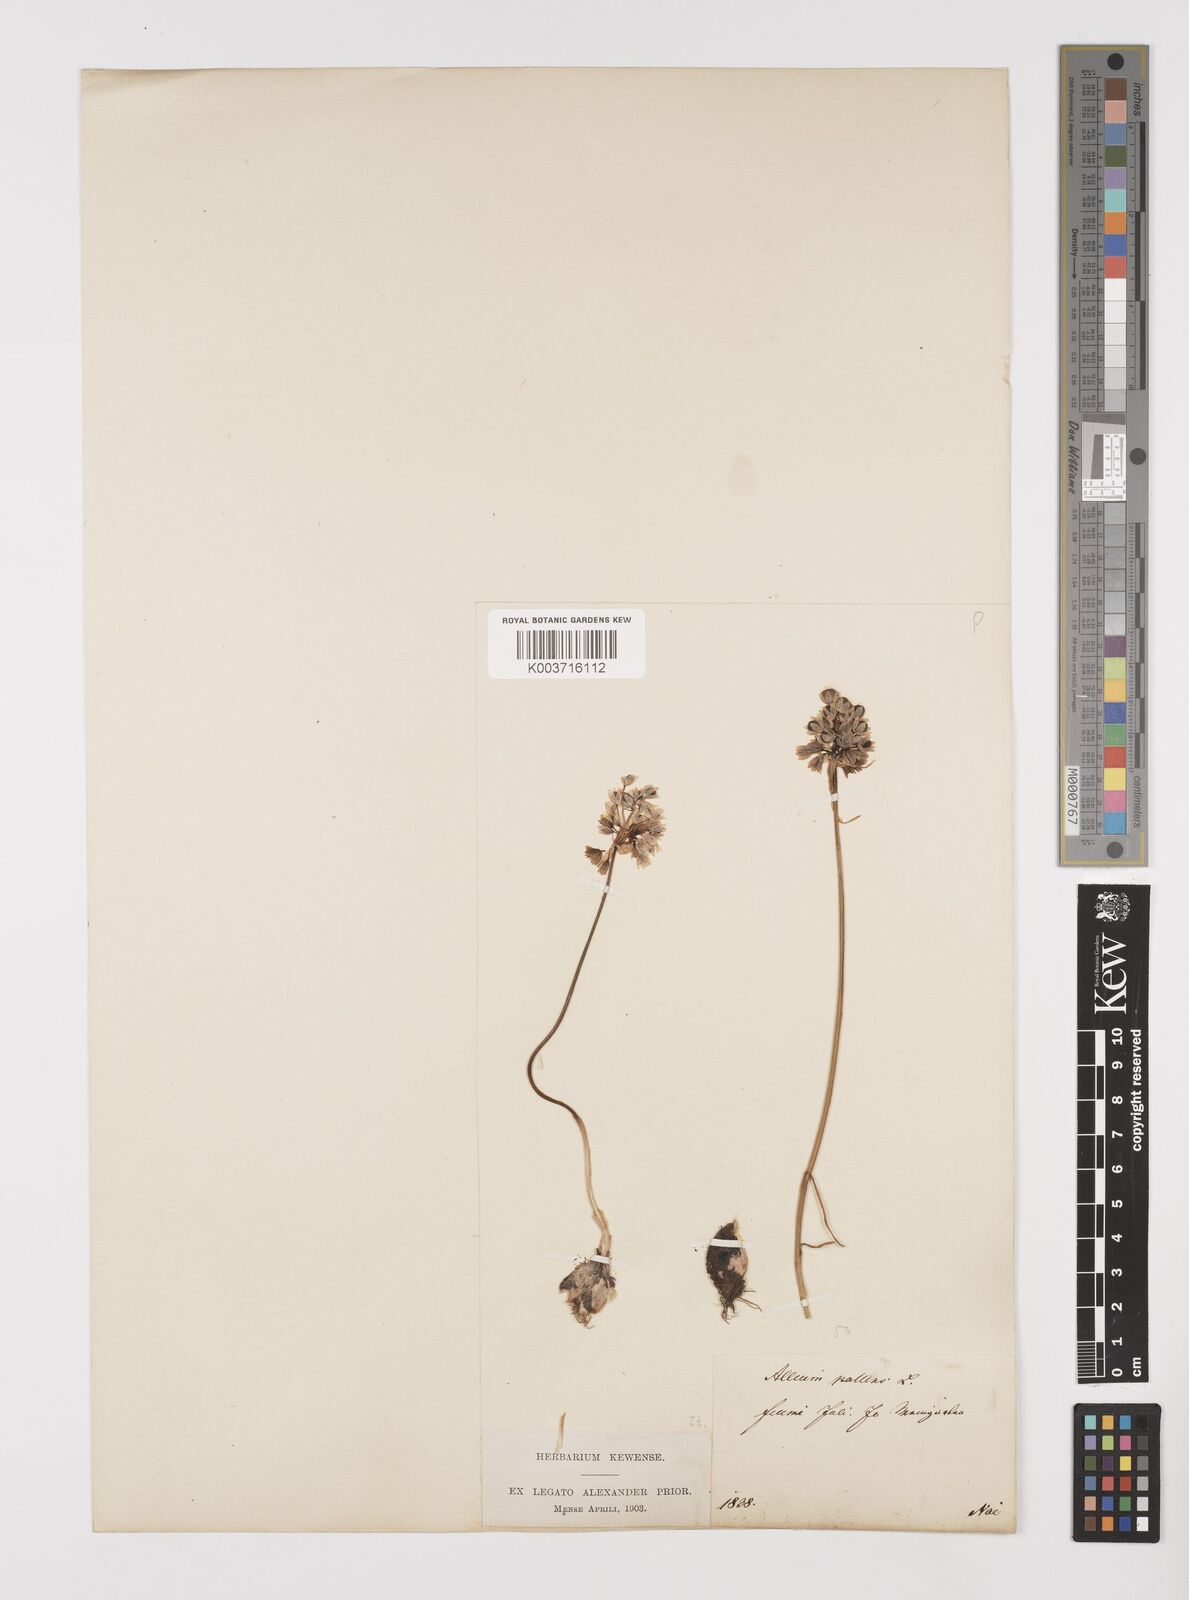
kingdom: Plantae
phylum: Tracheophyta
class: Liliopsida
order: Asparagales
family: Amaryllidaceae
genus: Allium
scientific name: Allium pallens
